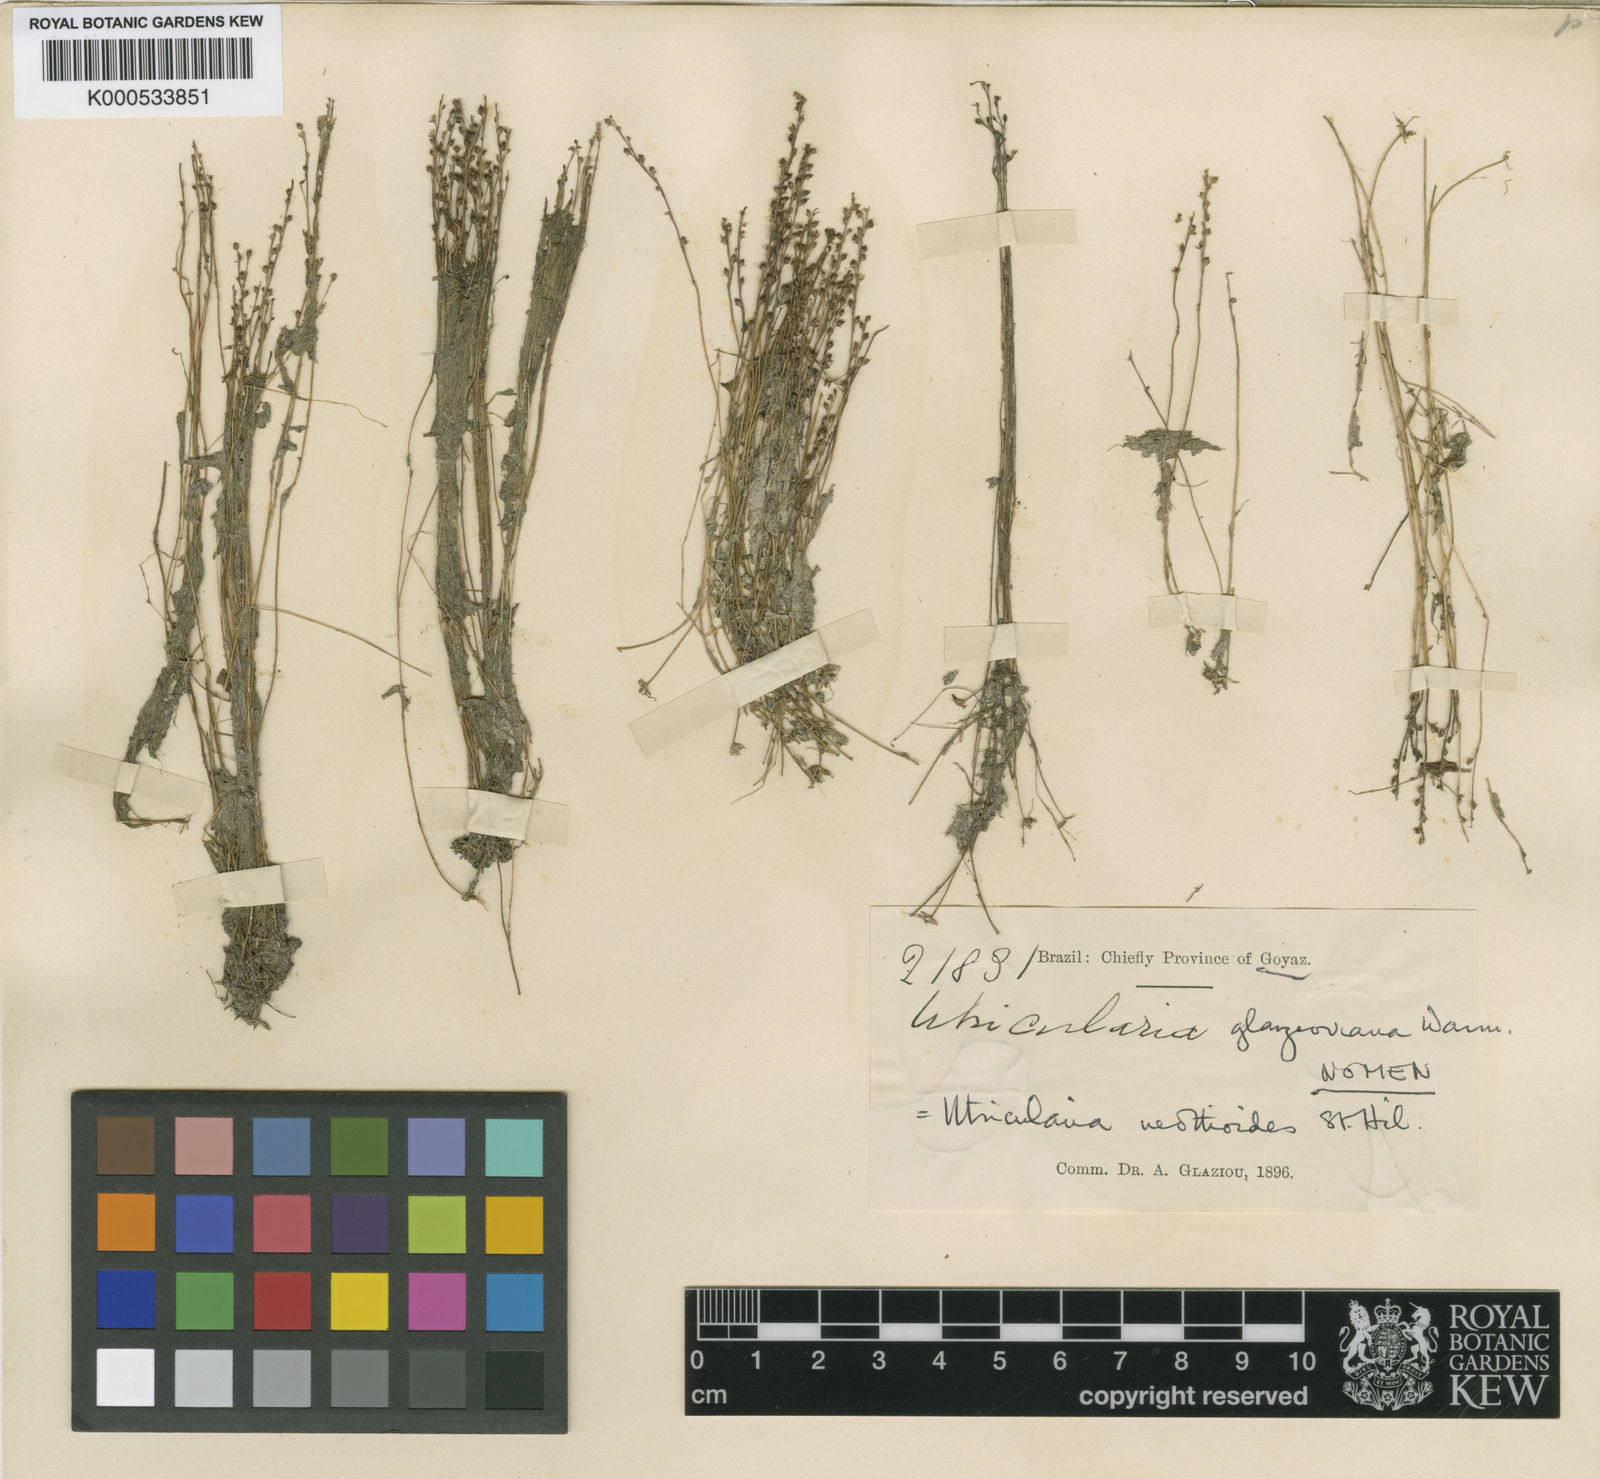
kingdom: Plantae
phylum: Tracheophyta
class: Magnoliopsida
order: Lamiales
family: Lentibulariaceae
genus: Utricularia
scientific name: Utricularia neottioides
